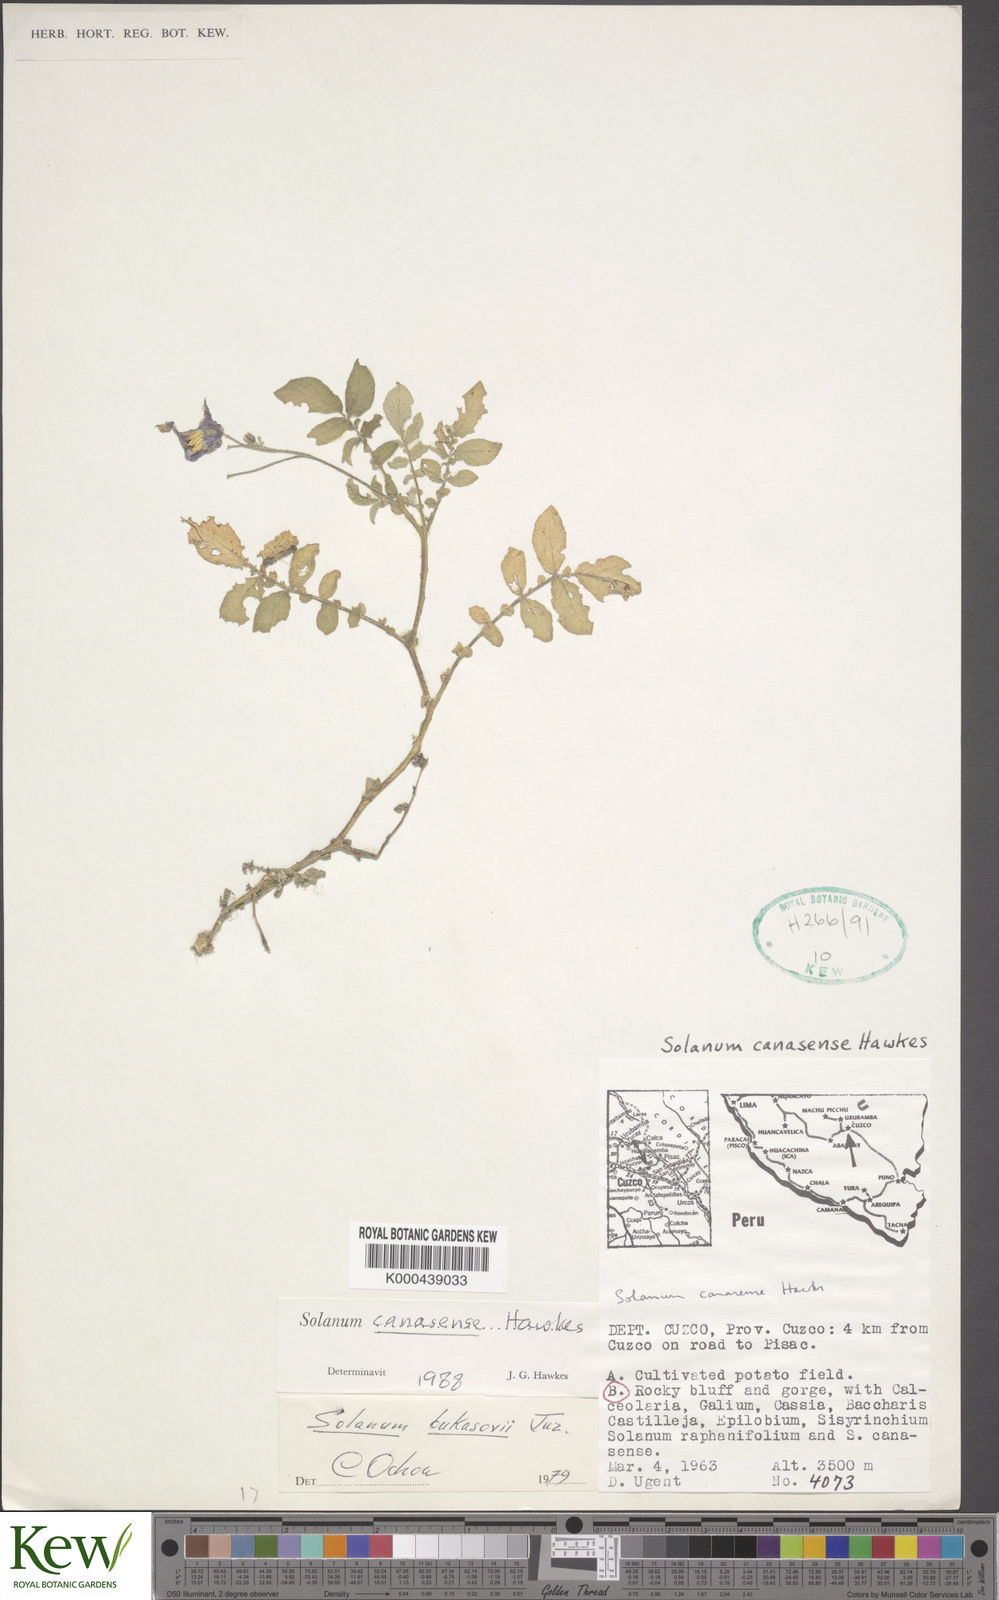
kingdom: Plantae
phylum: Tracheophyta
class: Magnoliopsida
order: Solanales
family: Solanaceae
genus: Solanum
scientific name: Solanum candolleanum
